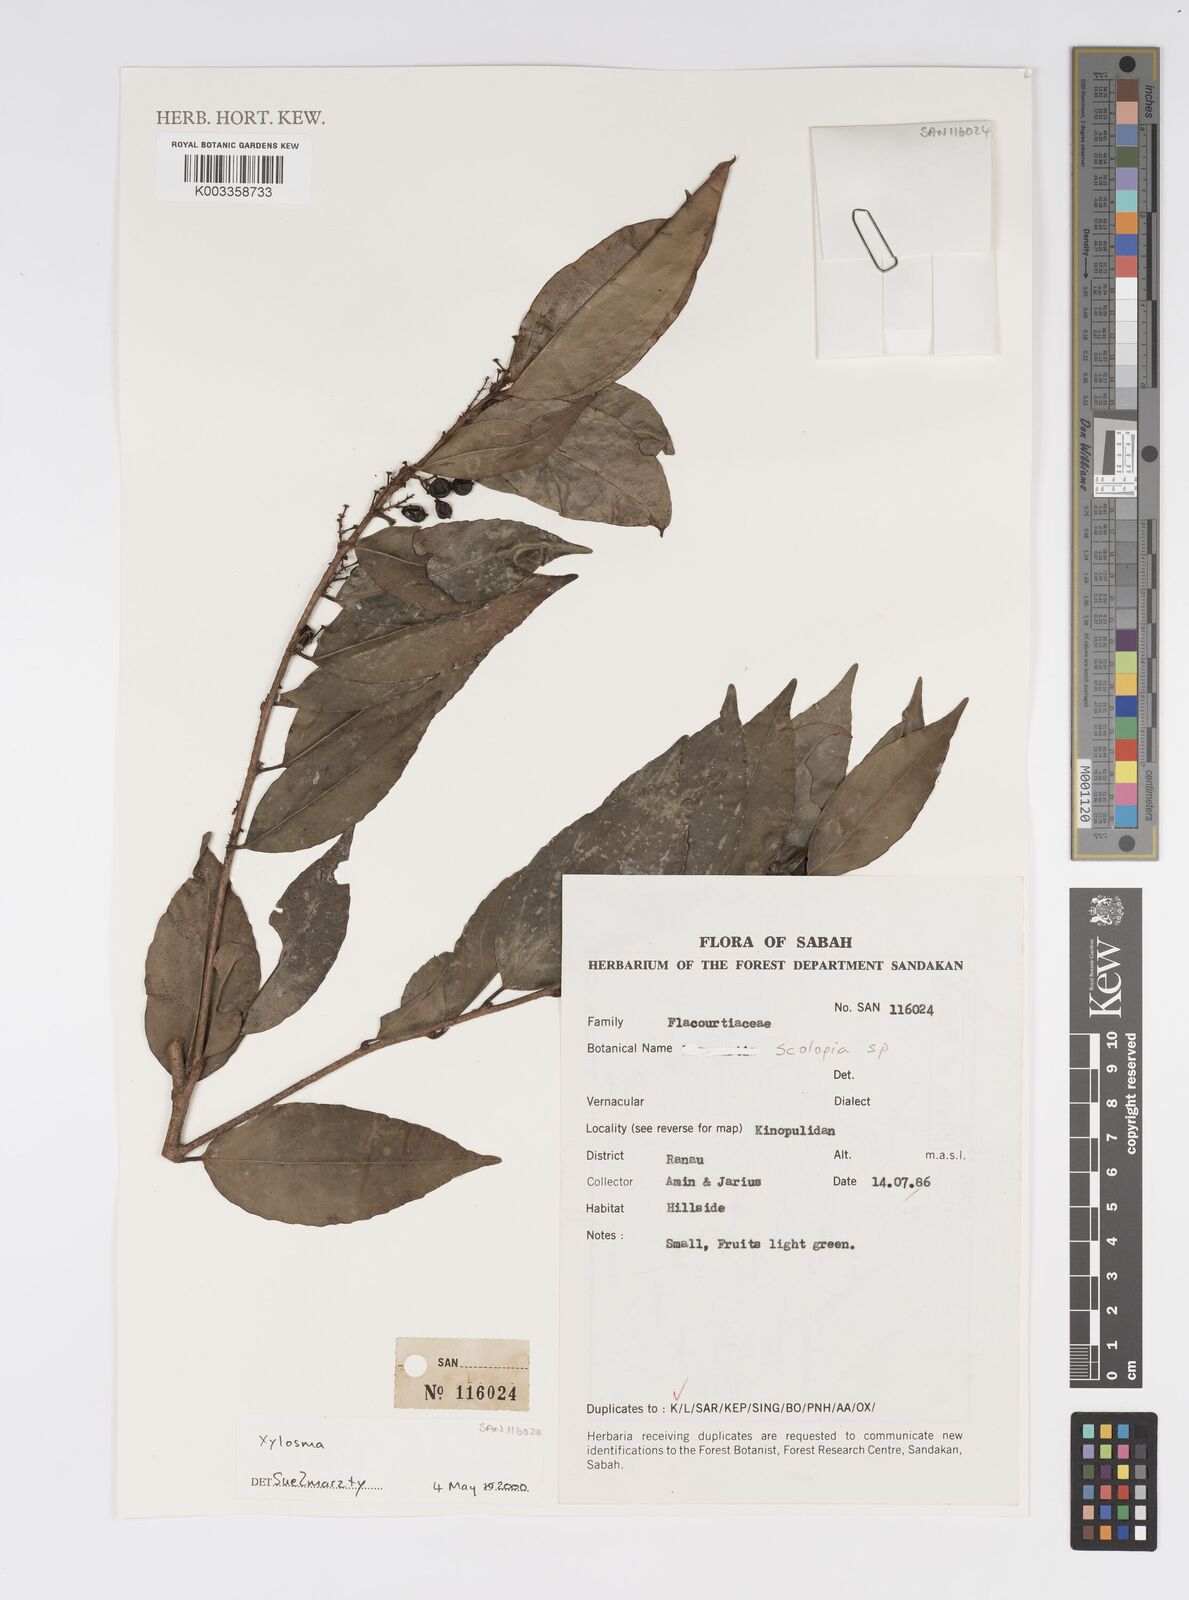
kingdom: Plantae
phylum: Tracheophyta
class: Magnoliopsida
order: Malpighiales
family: Salicaceae
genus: Xylosma
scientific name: Xylosma
